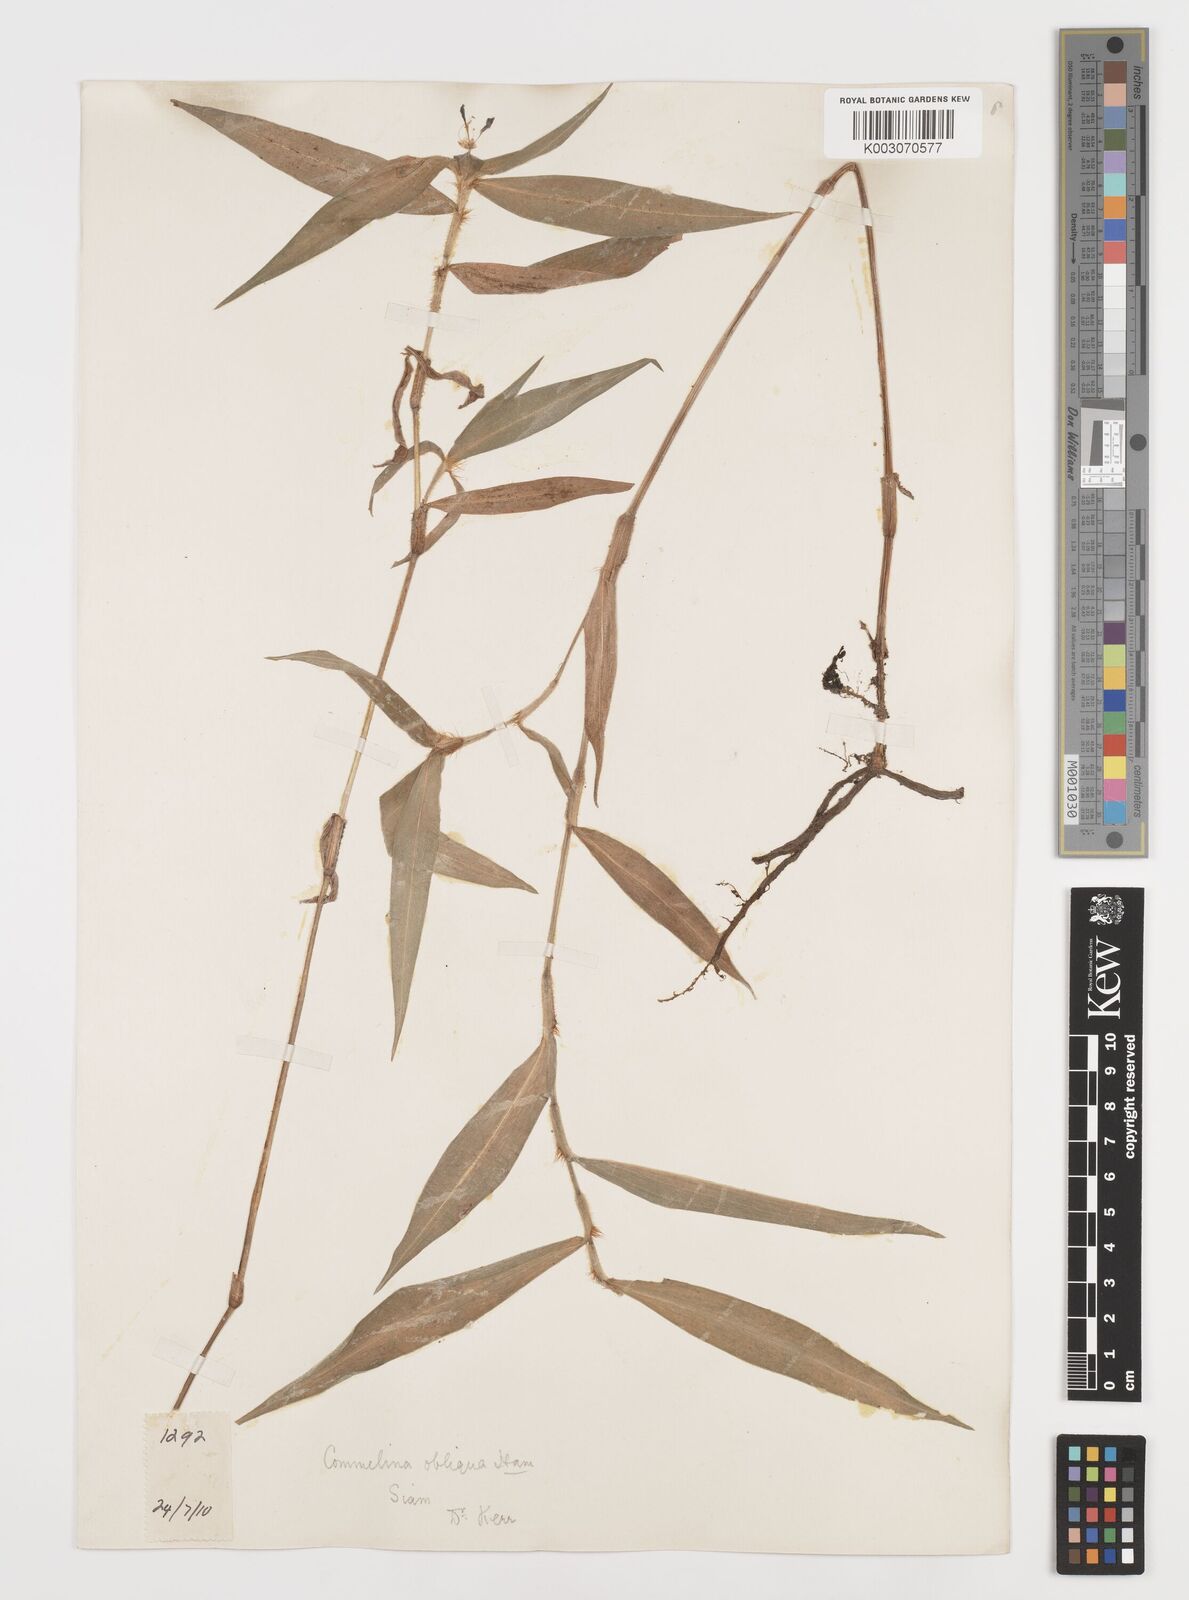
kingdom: Plantae
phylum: Tracheophyta
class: Liliopsida
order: Commelinales
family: Commelinaceae
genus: Commelina
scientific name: Commelina clavata
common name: Willow leaved dayflower
